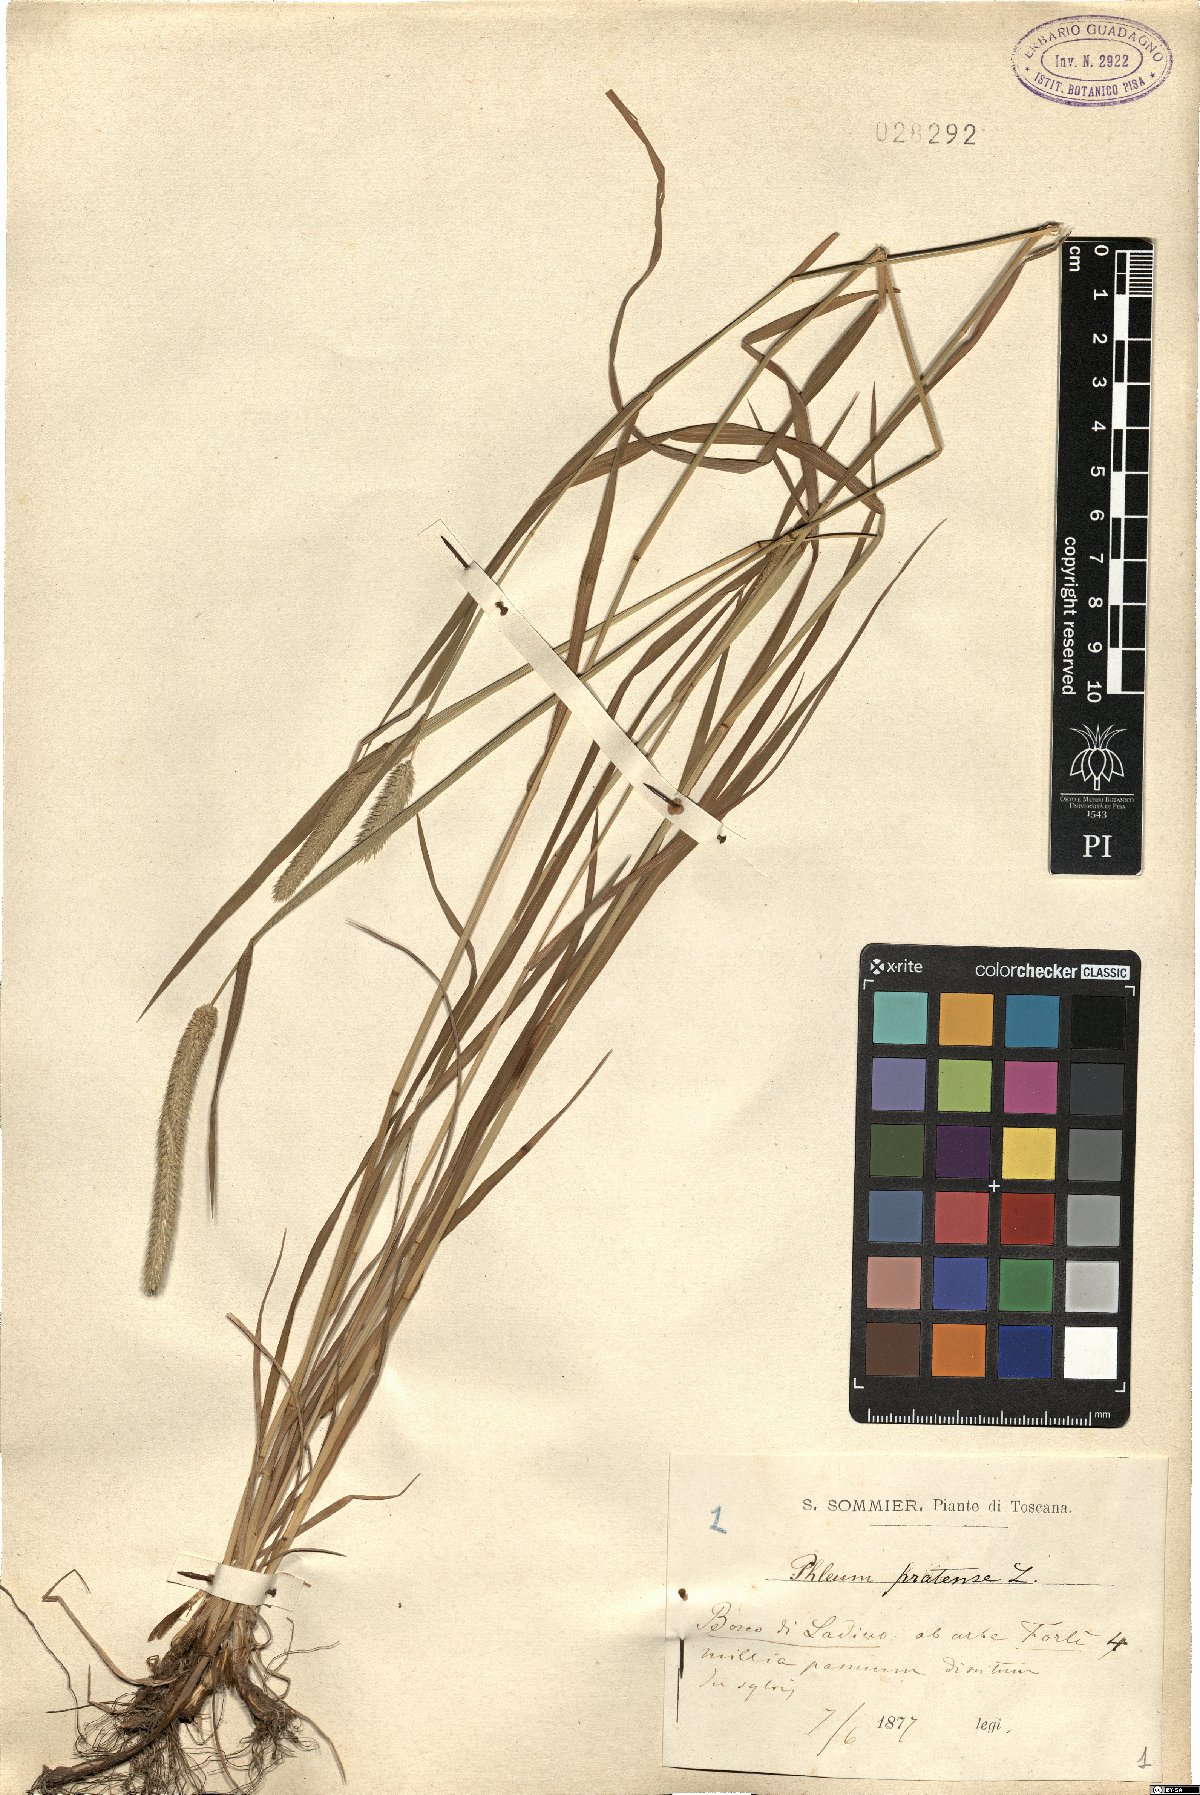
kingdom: Plantae
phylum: Tracheophyta
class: Liliopsida
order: Poales
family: Poaceae
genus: Phleum
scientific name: Phleum pratense
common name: Timothy grass
